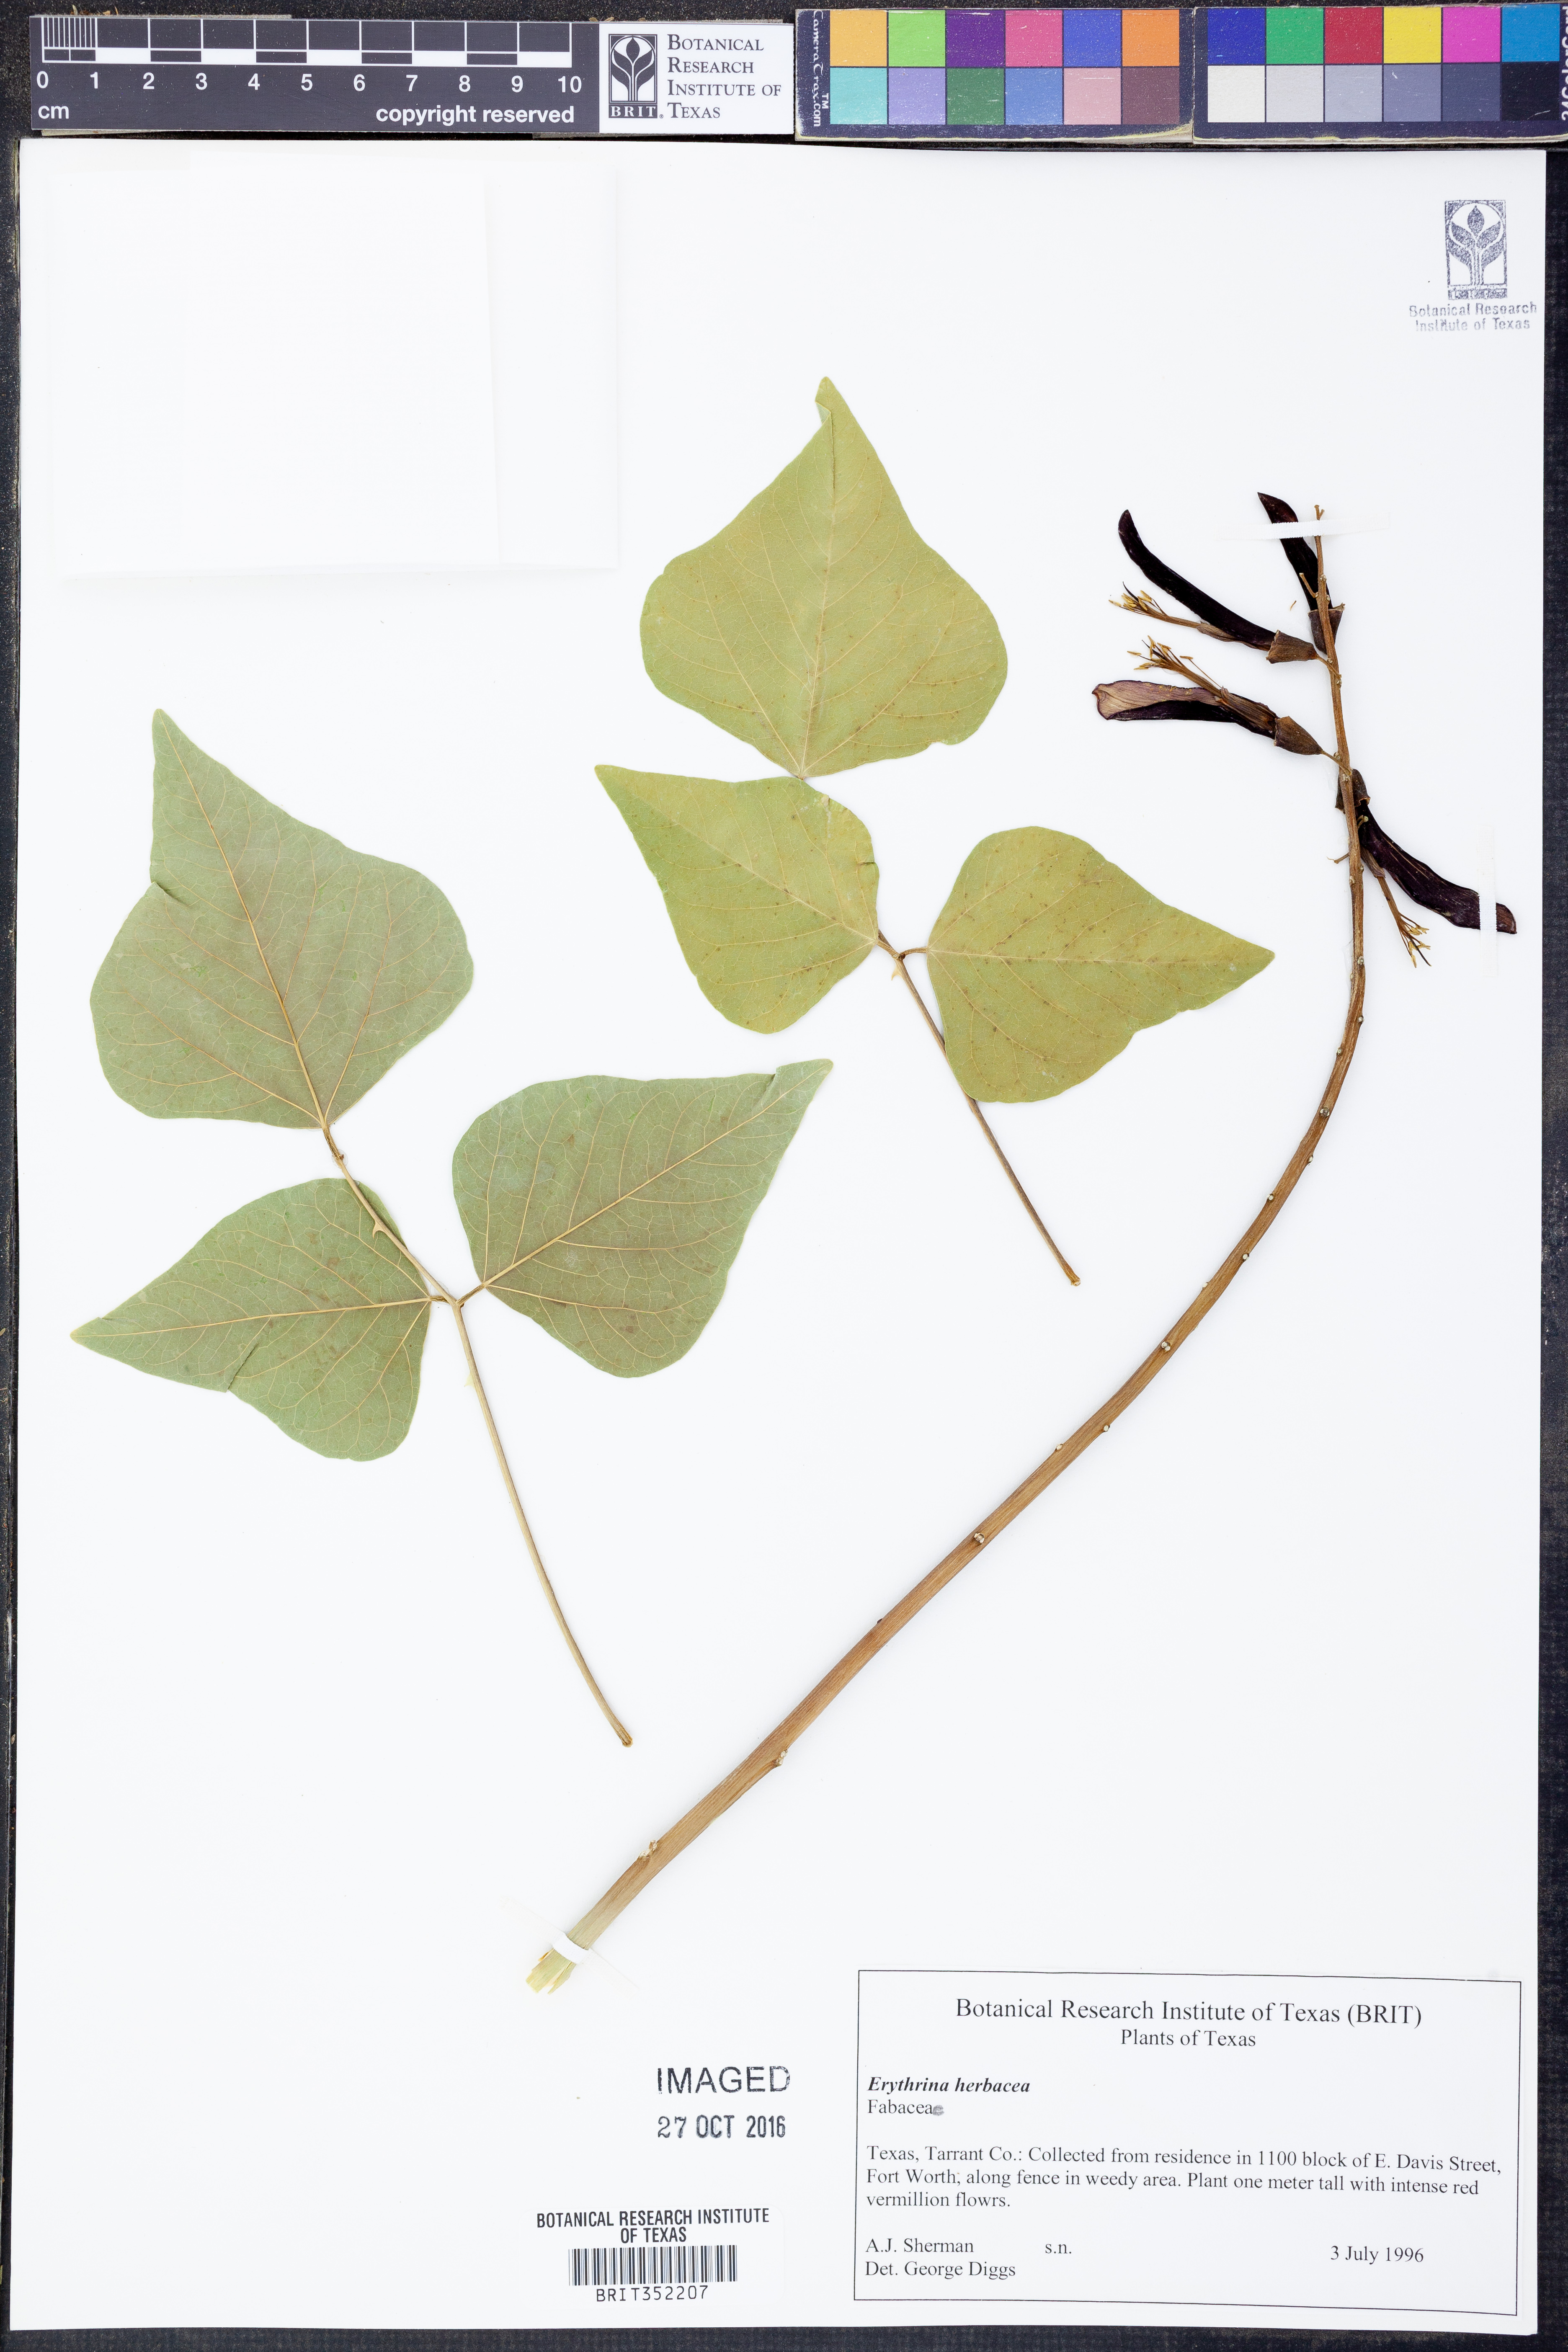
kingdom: Plantae
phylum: Tracheophyta
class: Magnoliopsida
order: Fabales
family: Fabaceae
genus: Erythrina
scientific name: Erythrina herbacea
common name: Coral-bean
